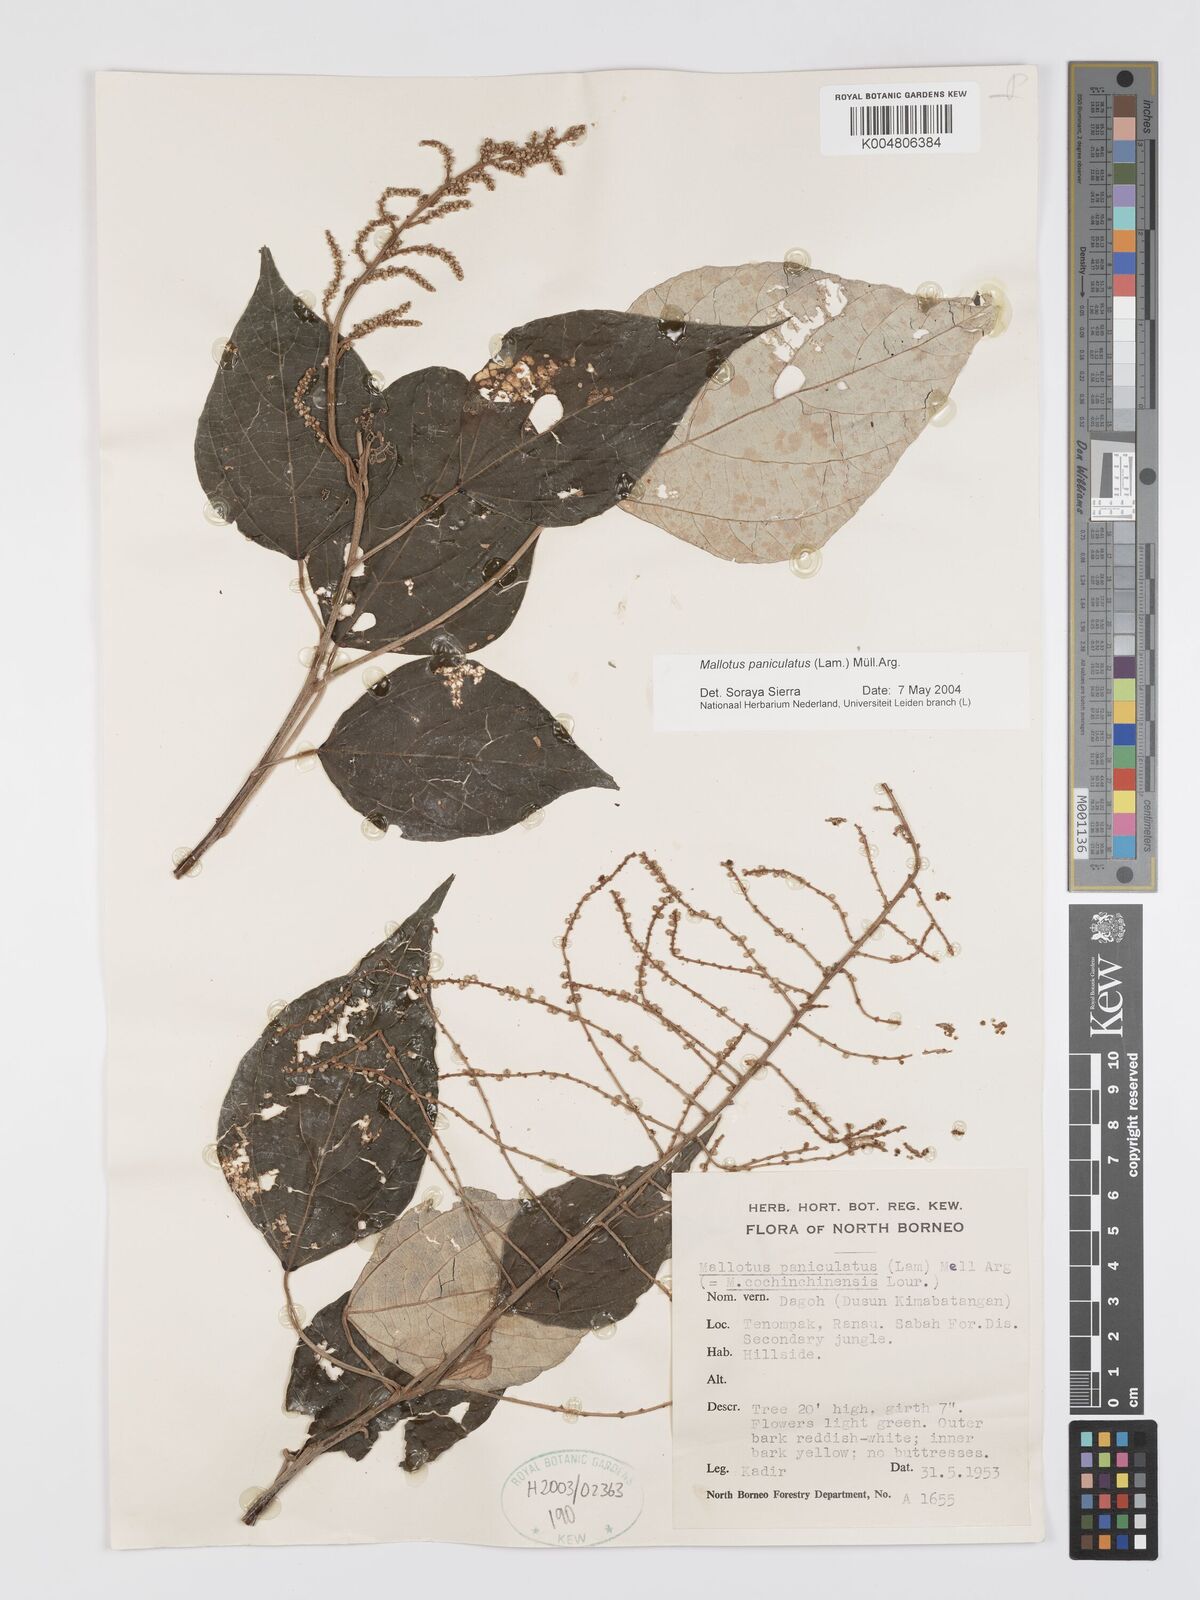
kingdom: Plantae
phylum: Tracheophyta
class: Magnoliopsida
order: Malpighiales
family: Euphorbiaceae
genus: Mallotus
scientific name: Mallotus paniculatus
